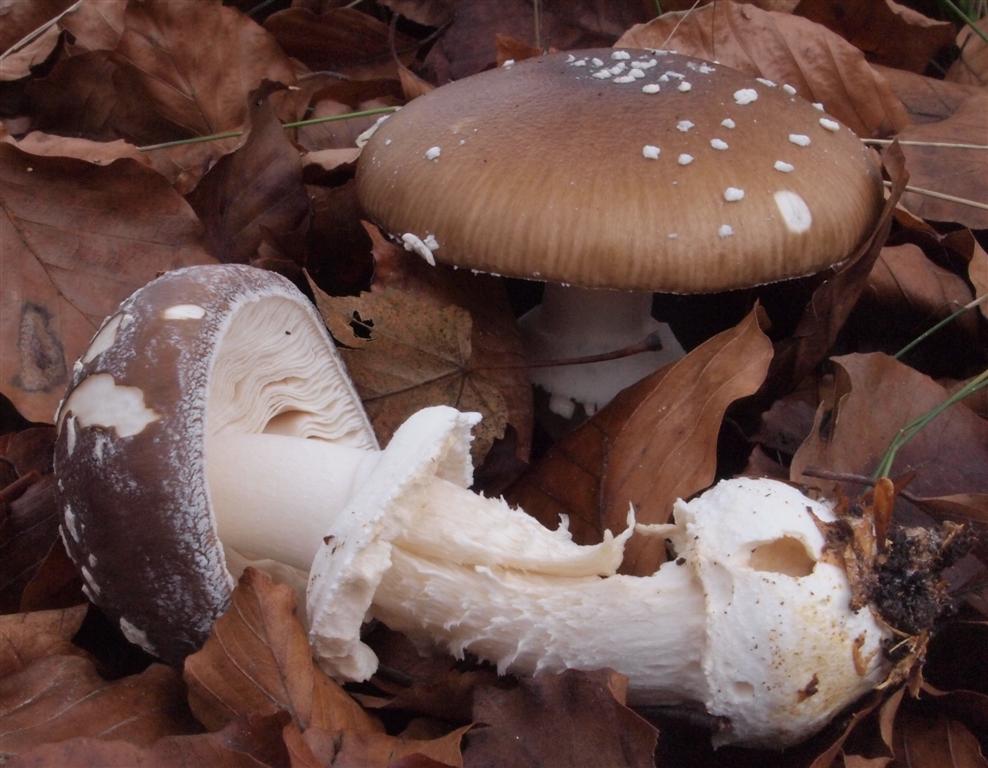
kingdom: Fungi
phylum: Basidiomycota
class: Agaricomycetes
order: Agaricales
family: Amanitaceae
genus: Amanita
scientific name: Amanita pantherina
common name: panter-fluesvamp
